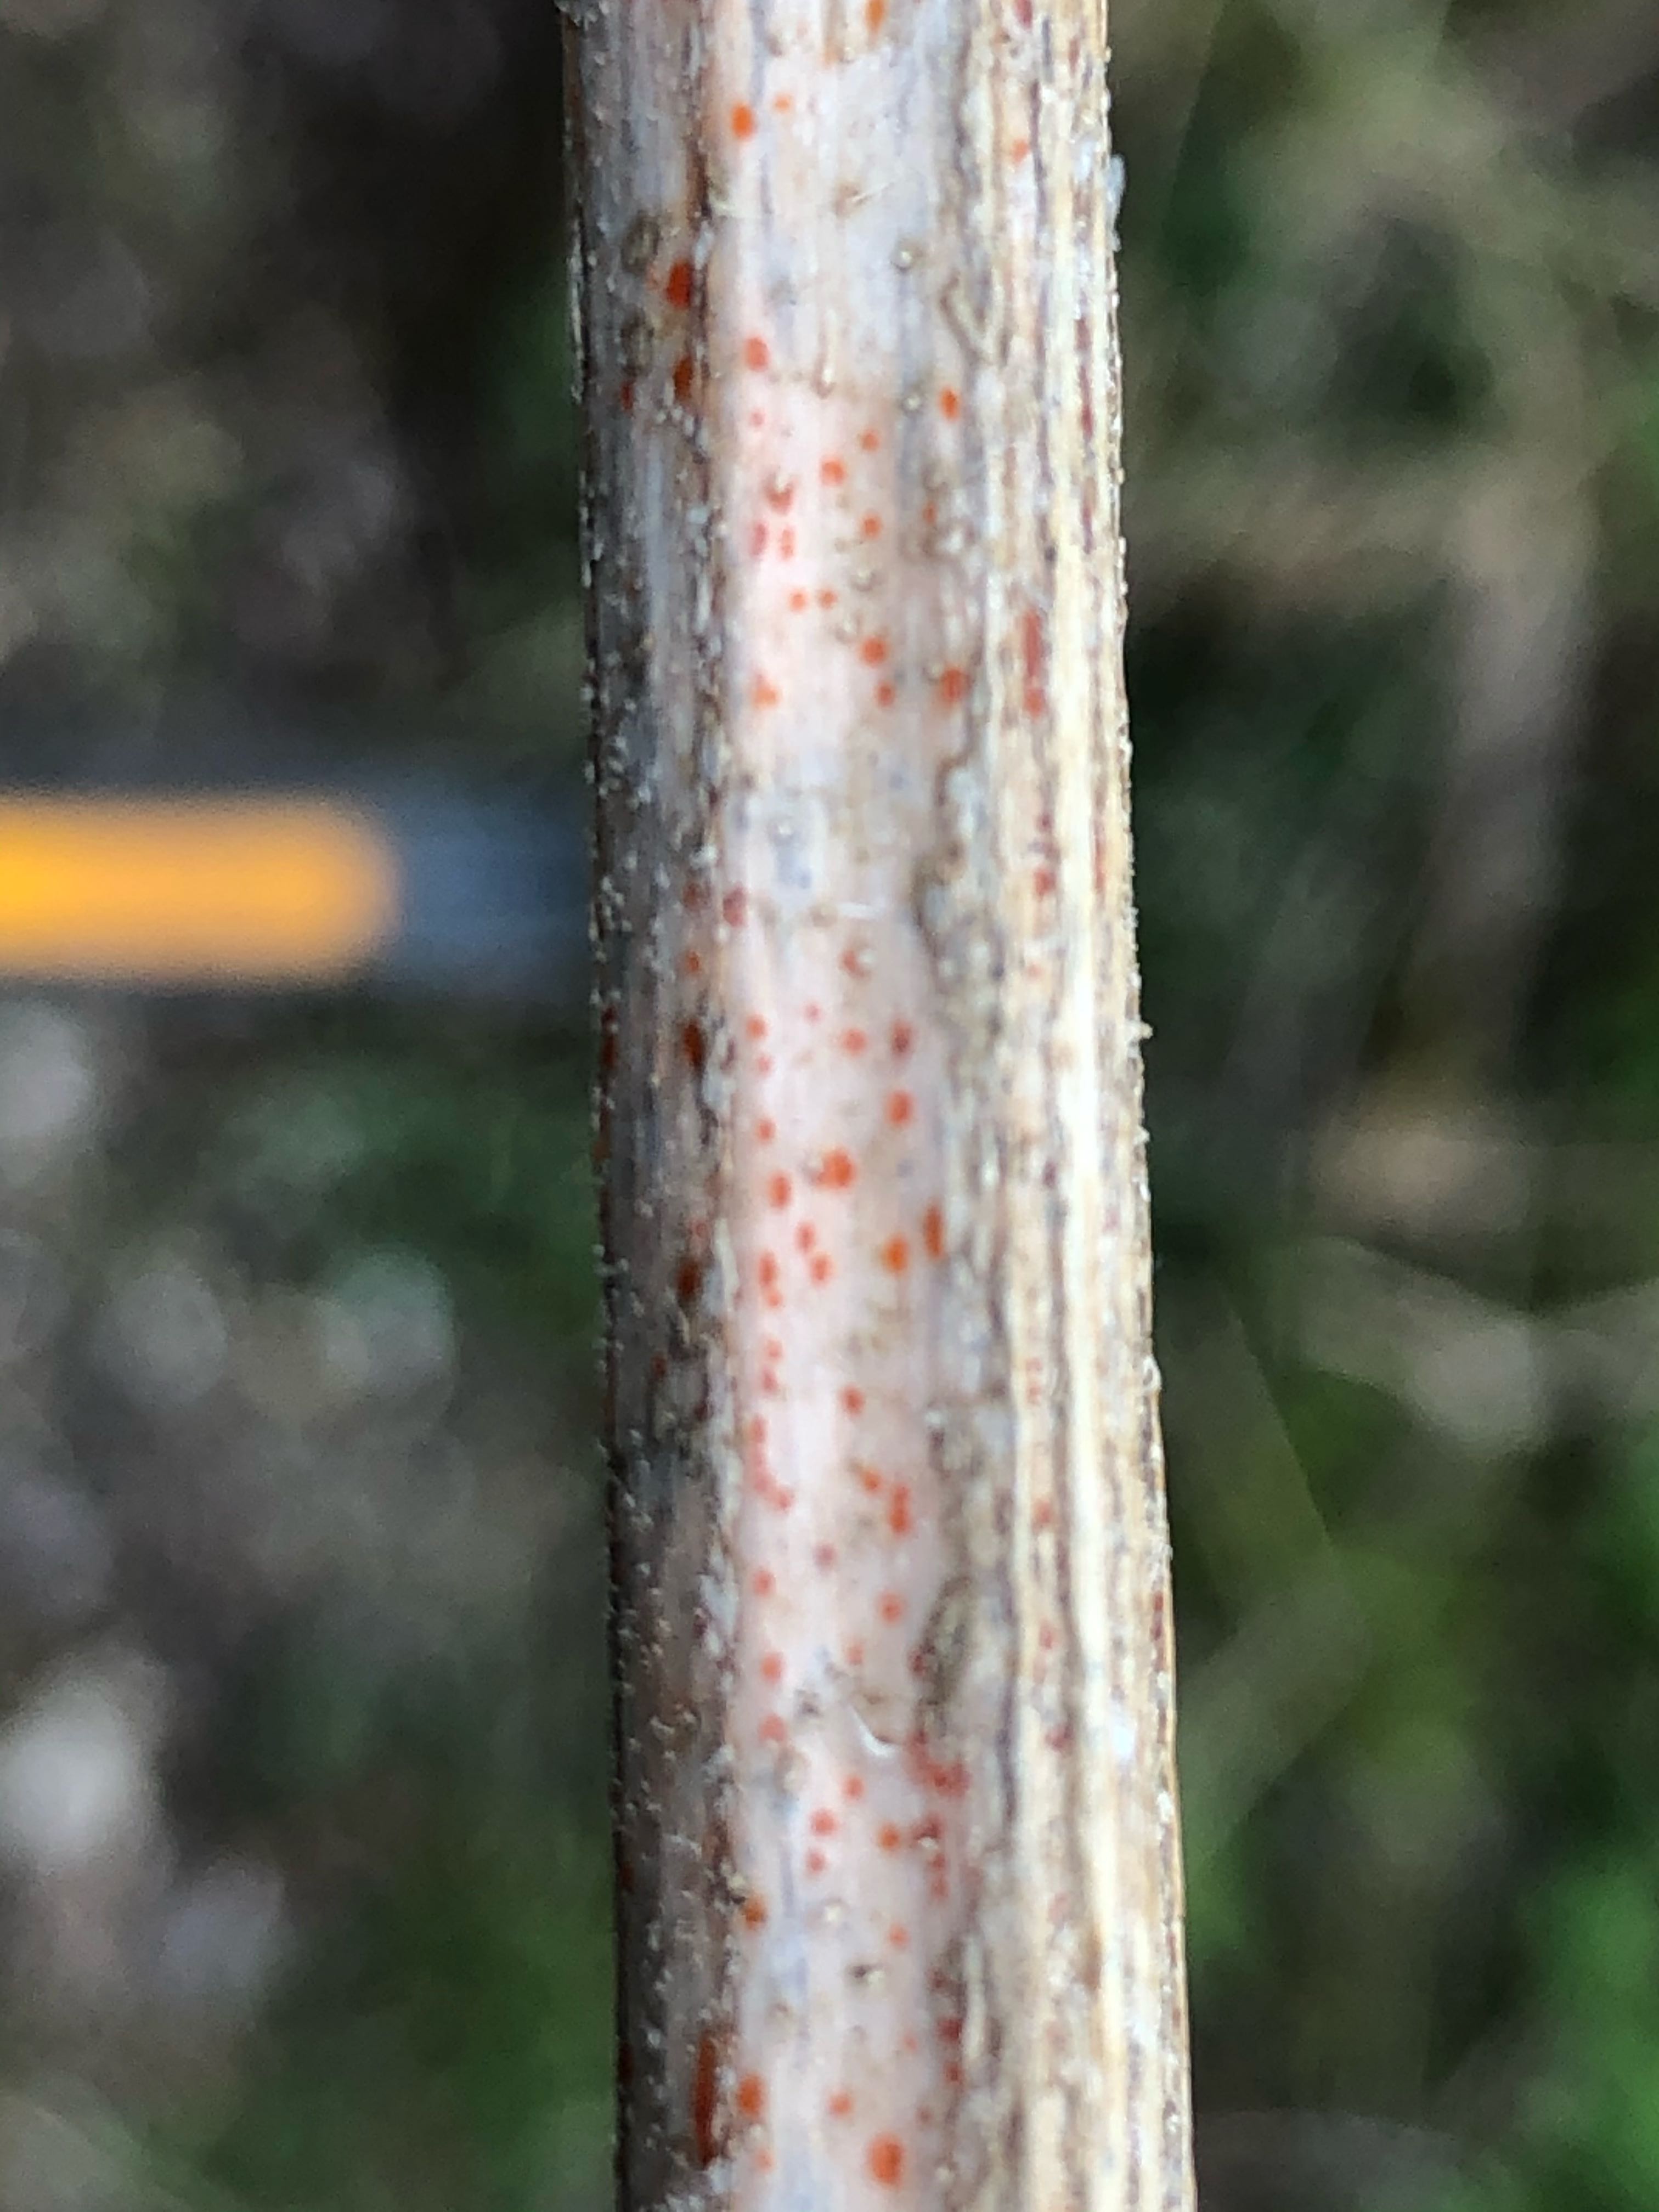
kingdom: Fungi
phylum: Ascomycota
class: Leotiomycetes
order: Helotiales
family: Calloriaceae
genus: Calloria
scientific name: Calloria urticae
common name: nælde-orangeskive
